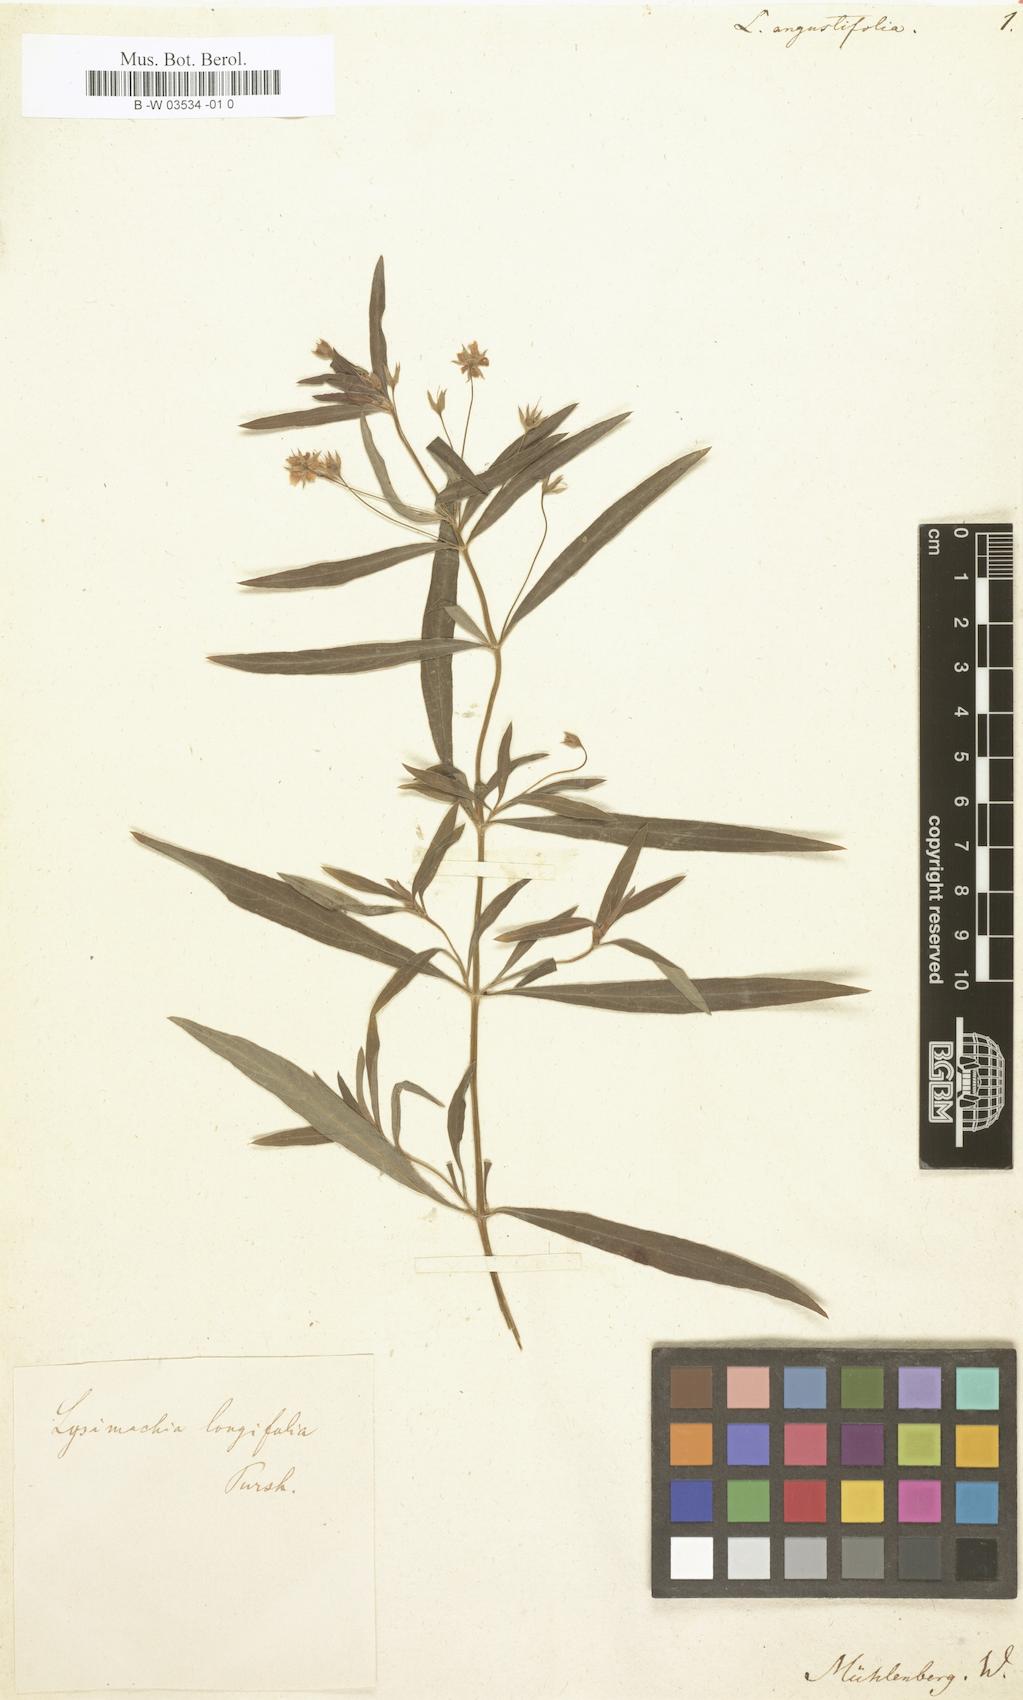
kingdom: Plantae
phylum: Tracheophyta
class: Magnoliopsida
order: Ericales
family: Primulaceae
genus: Lysimachia
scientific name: Lysimachia
